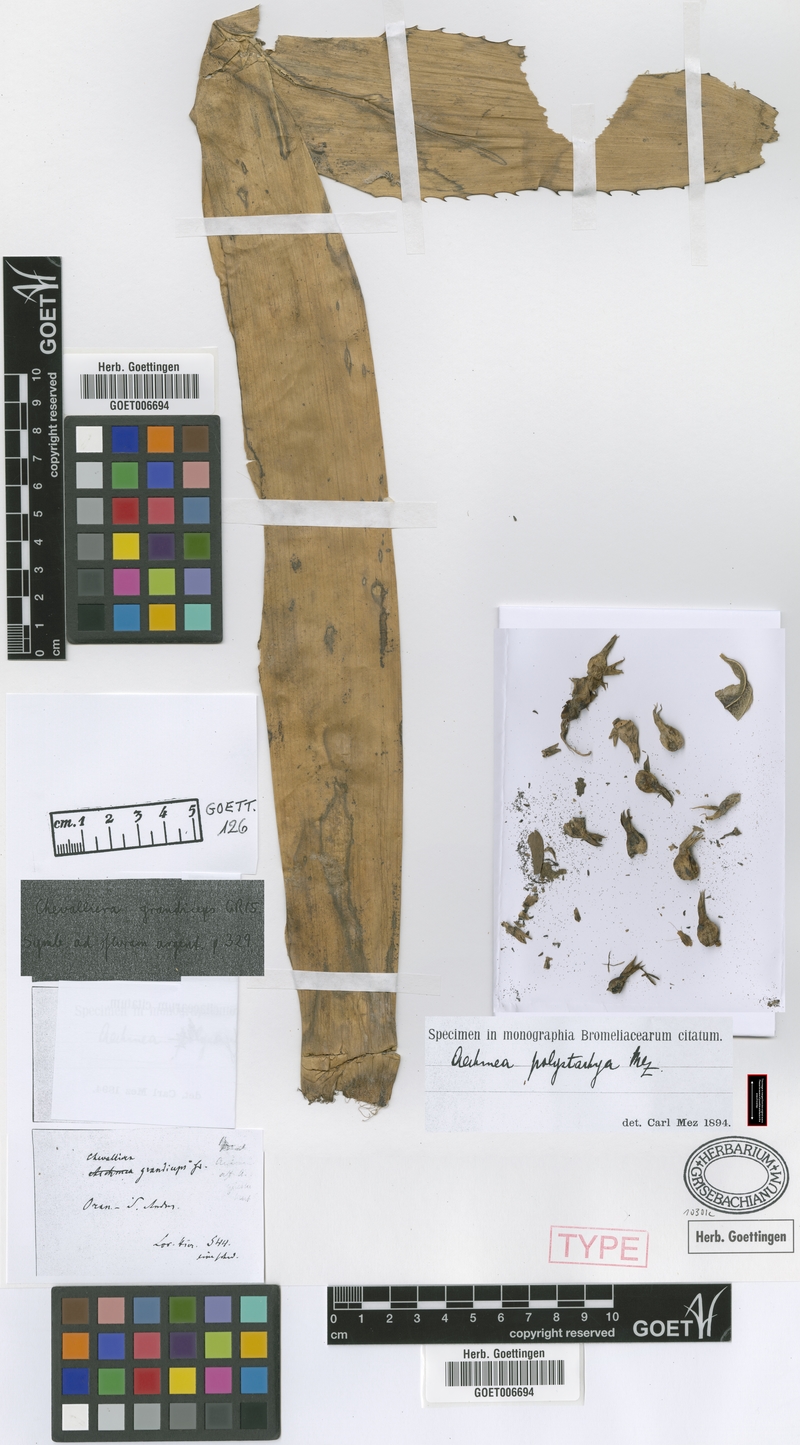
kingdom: Plantae
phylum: Tracheophyta
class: Liliopsida
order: Poales
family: Bromeliaceae
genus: Aechmea
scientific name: Aechmea distichantha
